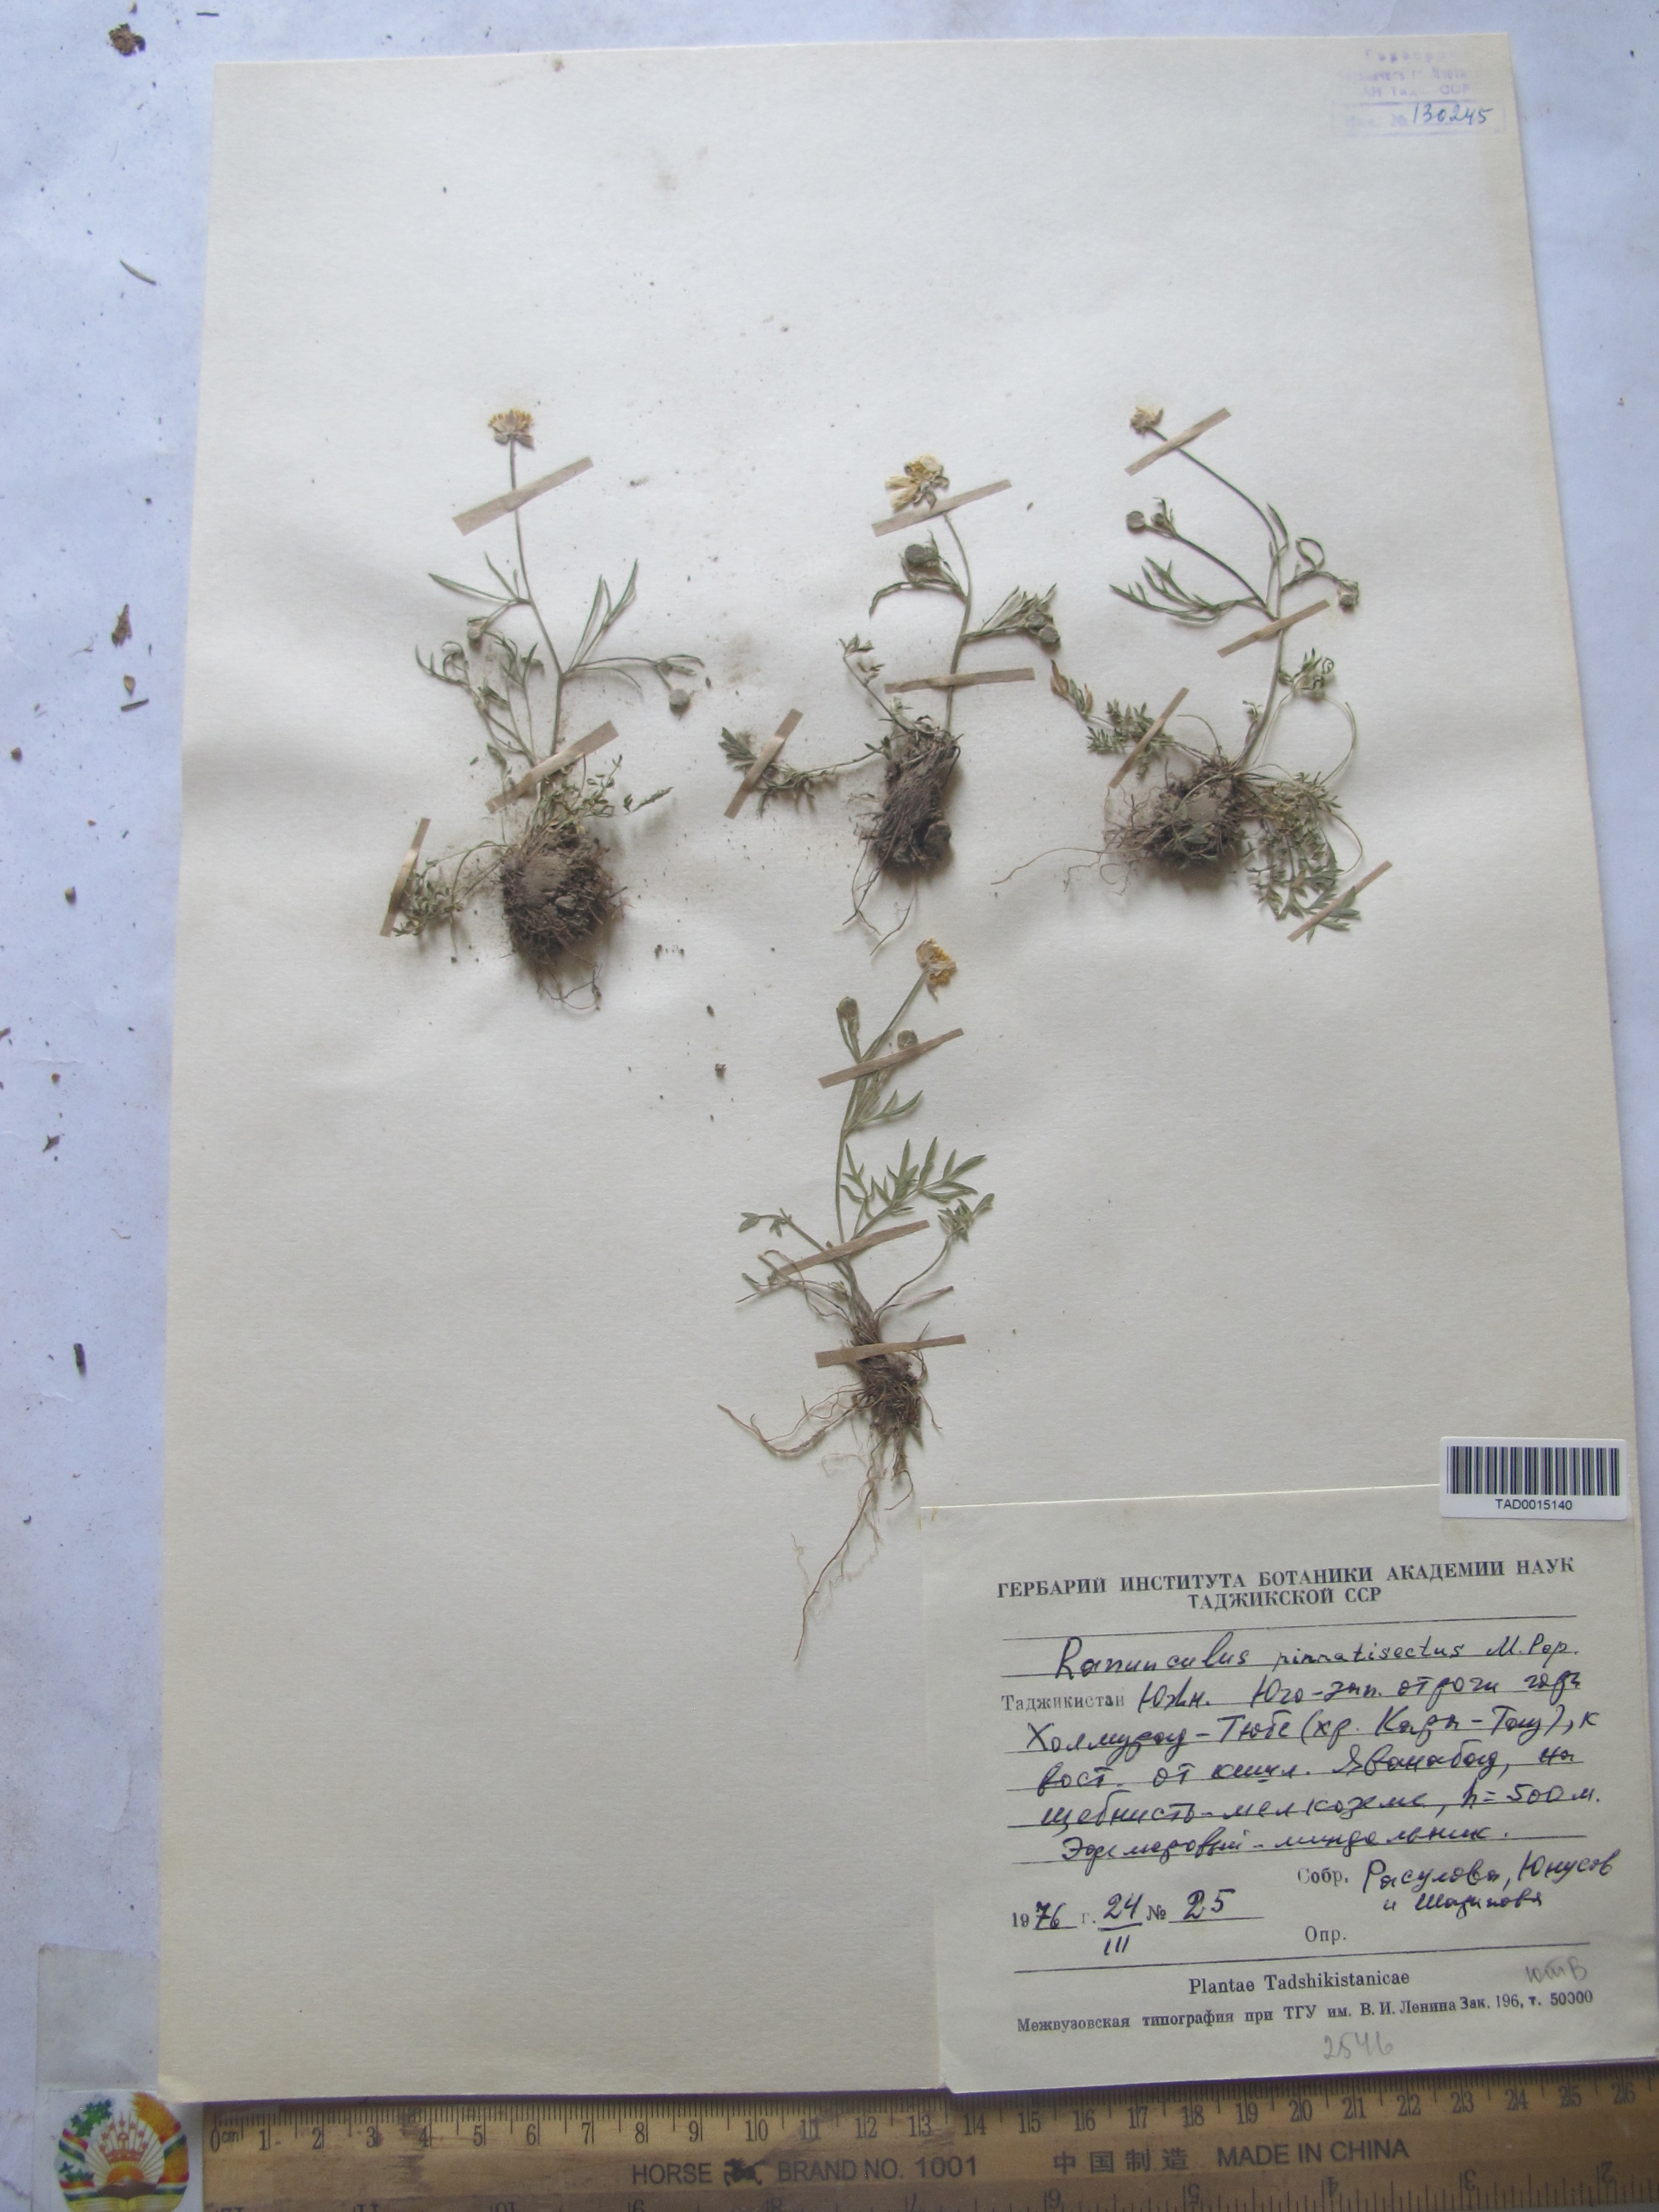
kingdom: Plantae
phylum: Tracheophyta
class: Magnoliopsida
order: Ranunculales
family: Ranunculaceae
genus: Ranunculus
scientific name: Ranunculus pinnatisectus
